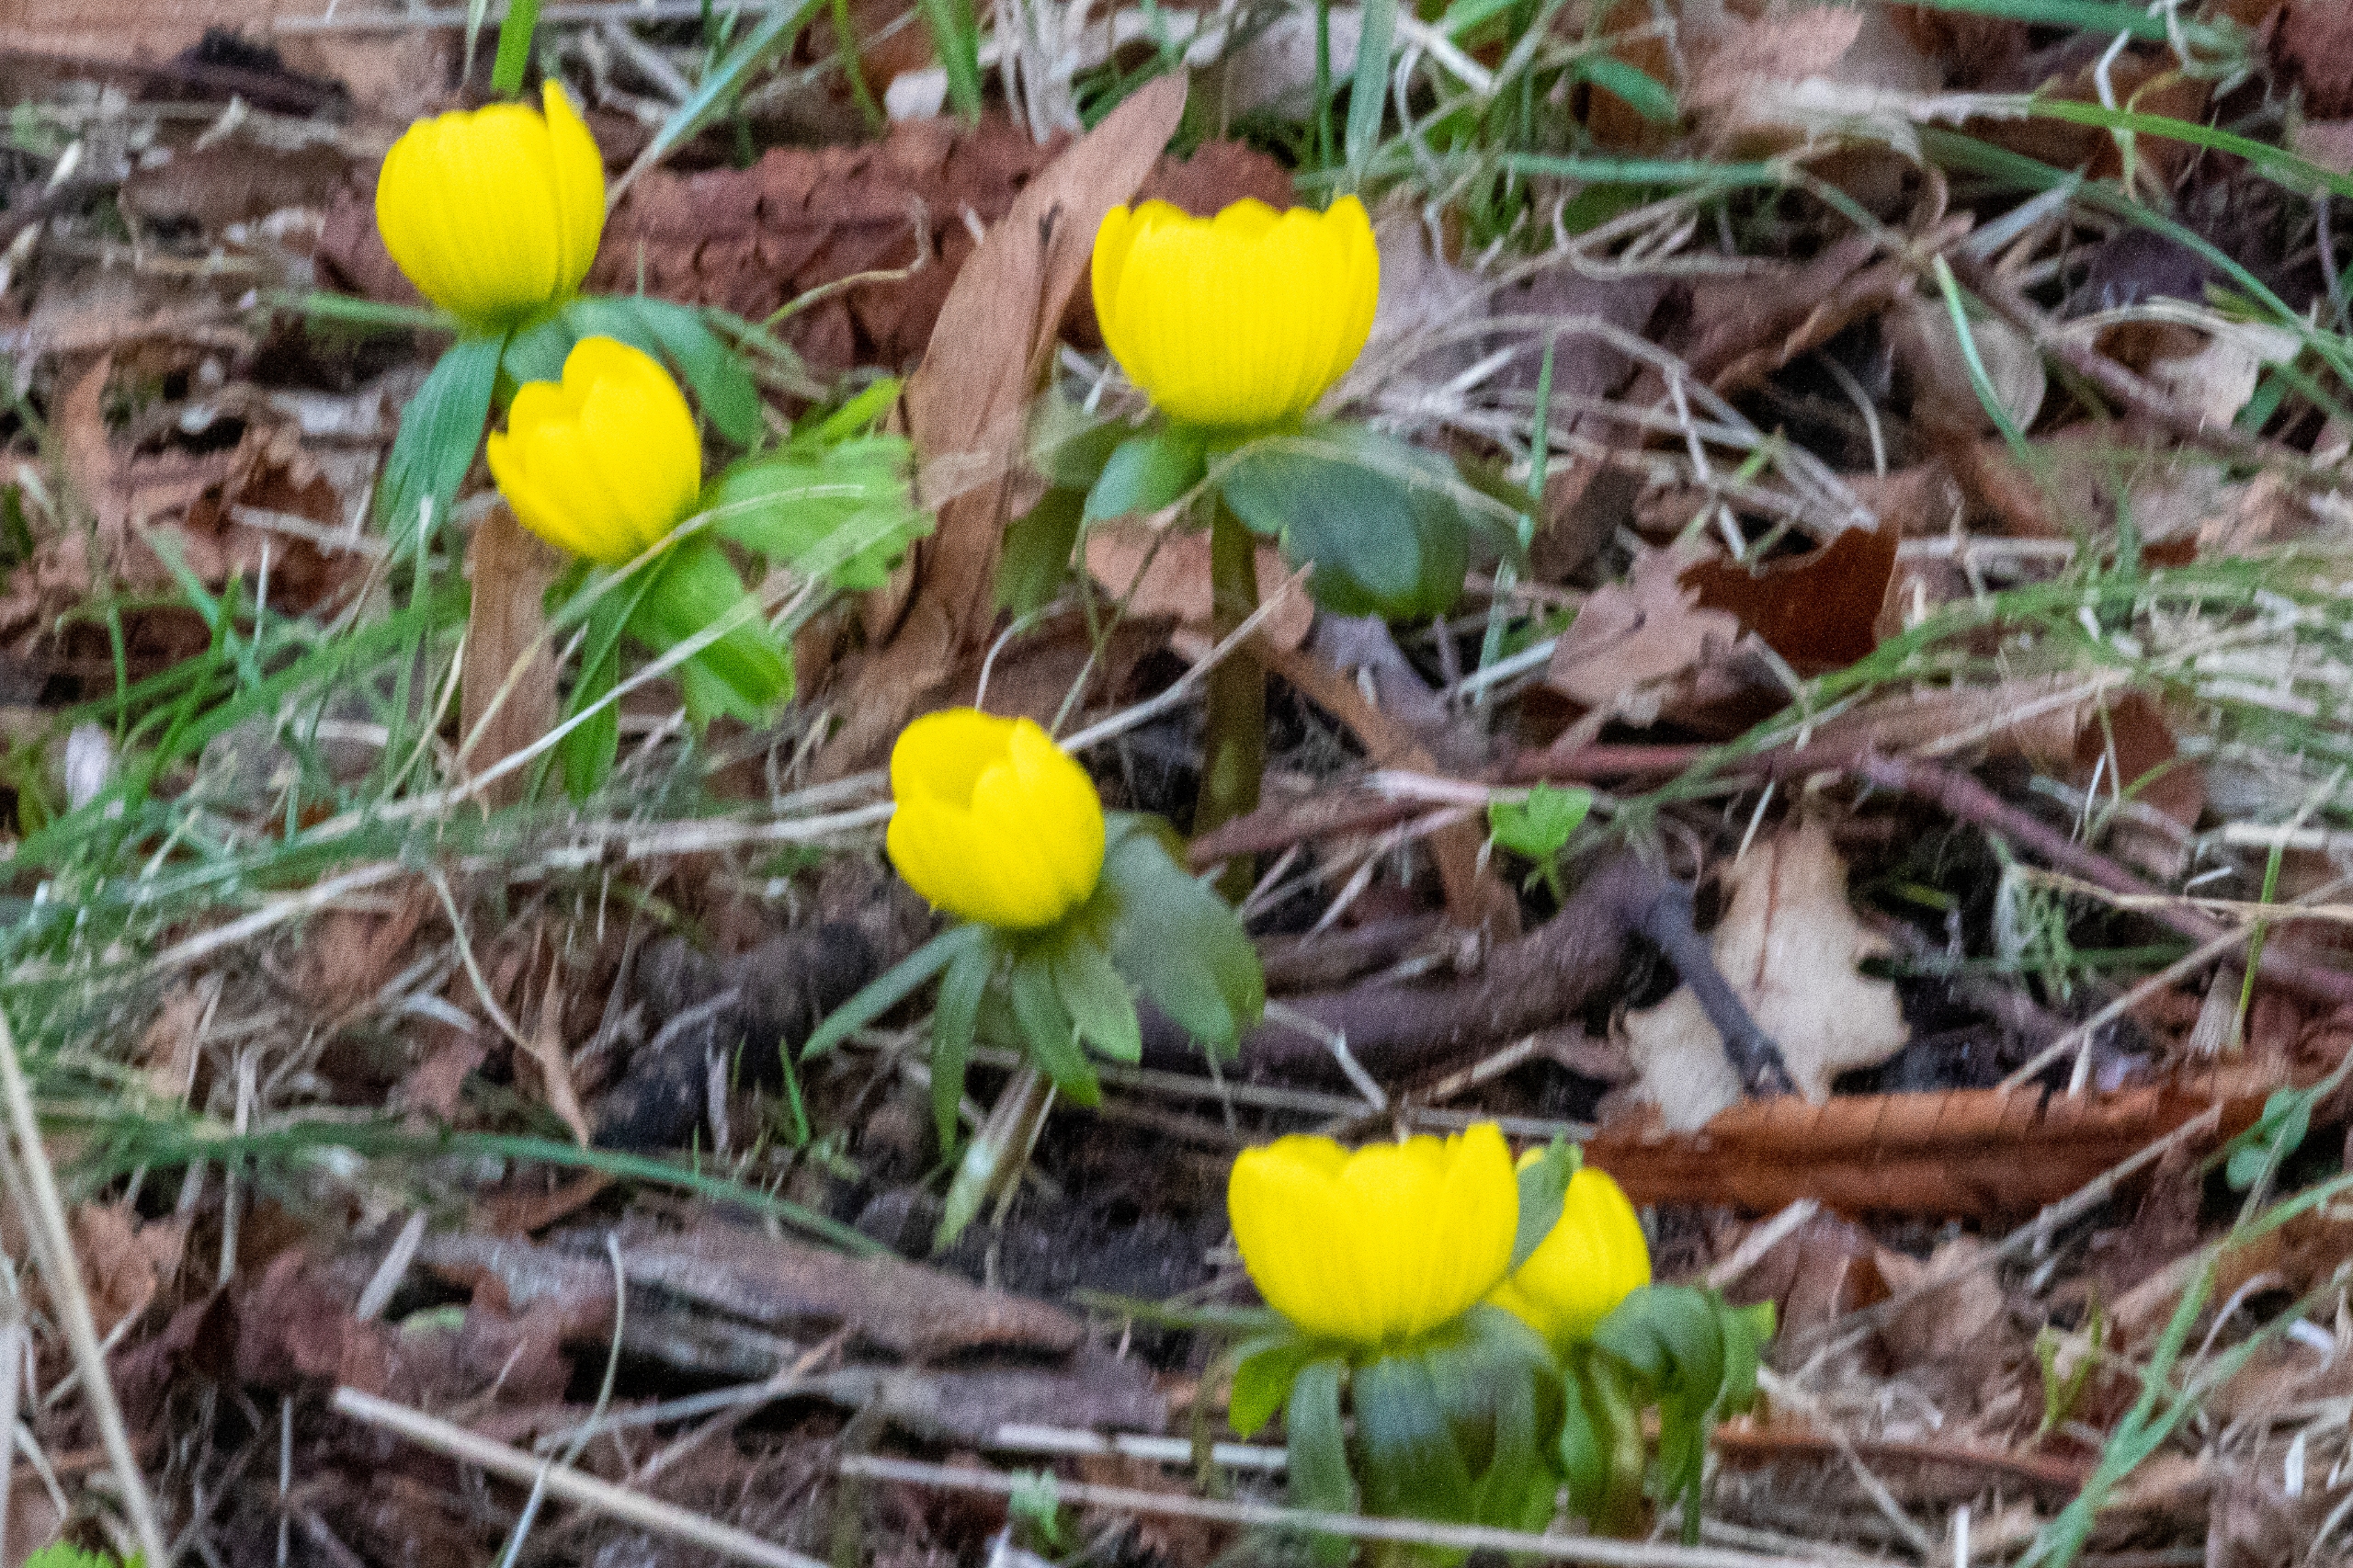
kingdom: Plantae
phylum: Tracheophyta
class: Magnoliopsida
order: Ranunculales
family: Ranunculaceae
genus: Eranthis
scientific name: Eranthis hyemalis
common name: Erantis
